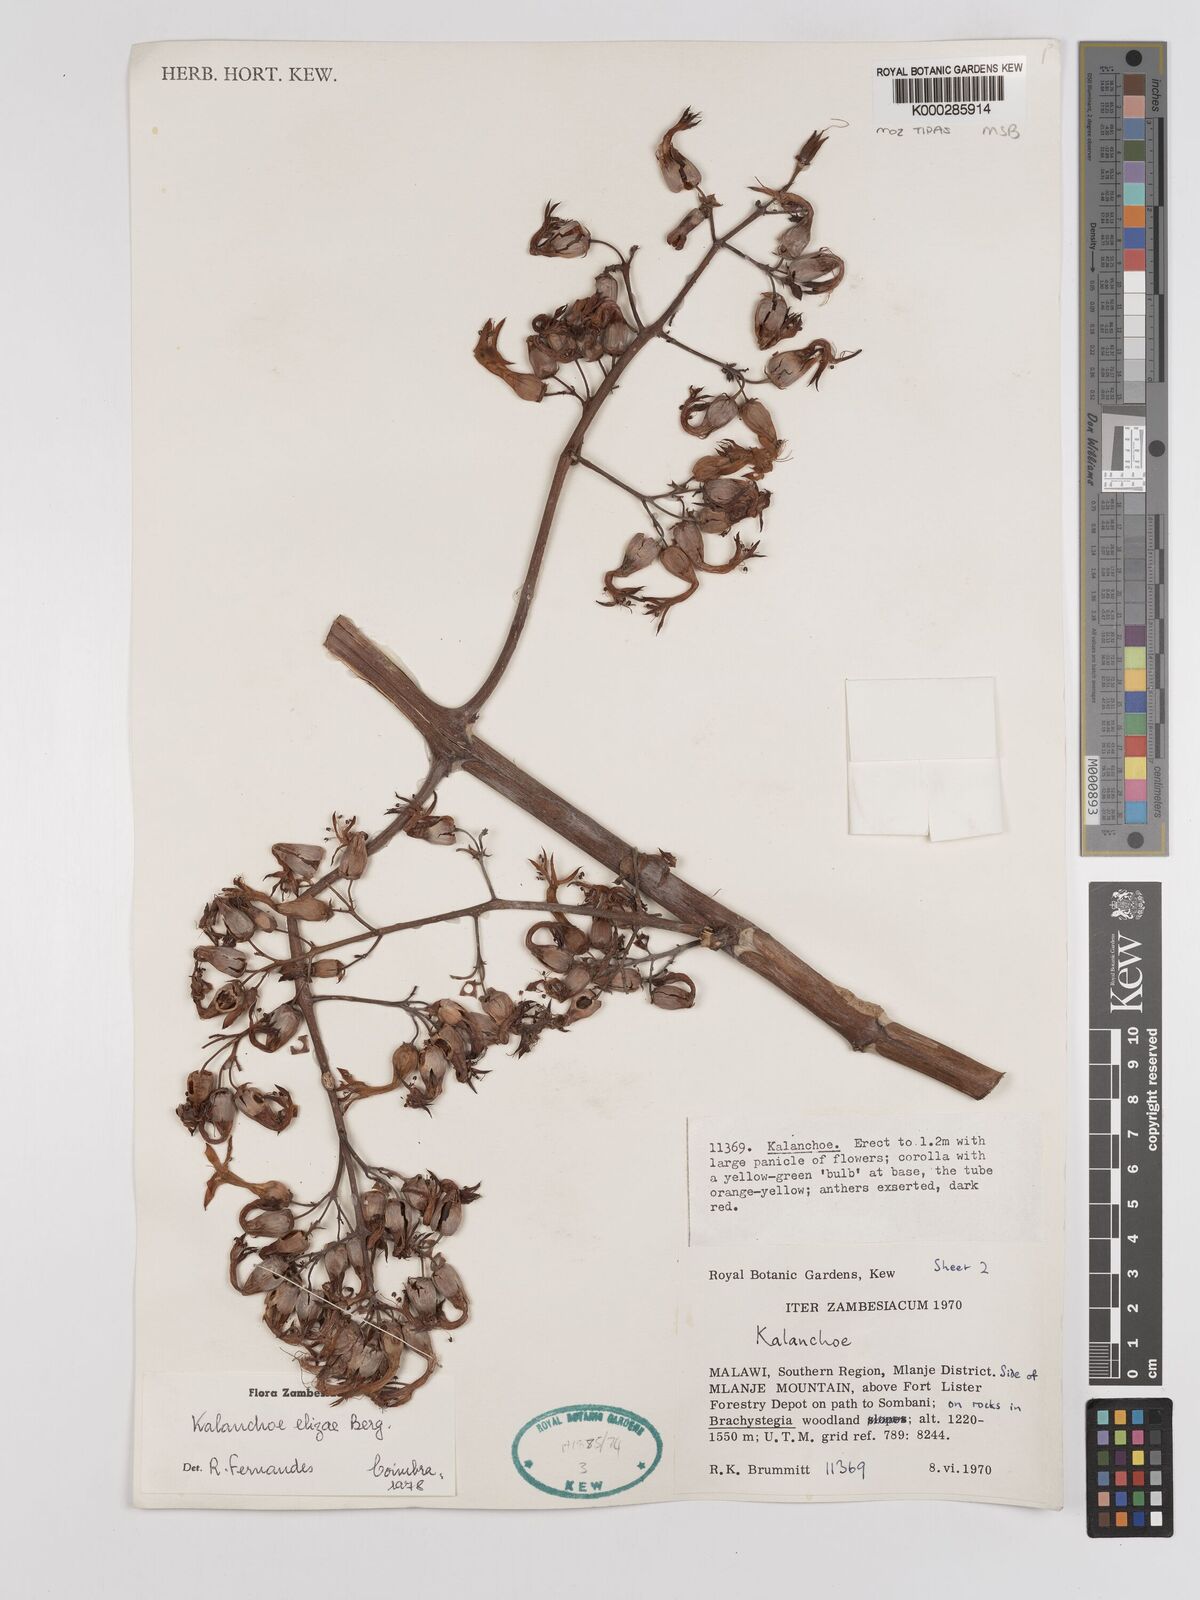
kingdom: Plantae
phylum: Tracheophyta
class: Magnoliopsida
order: Saxifragales
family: Crassulaceae
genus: Kalanchoe
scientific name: Kalanchoe elizae
